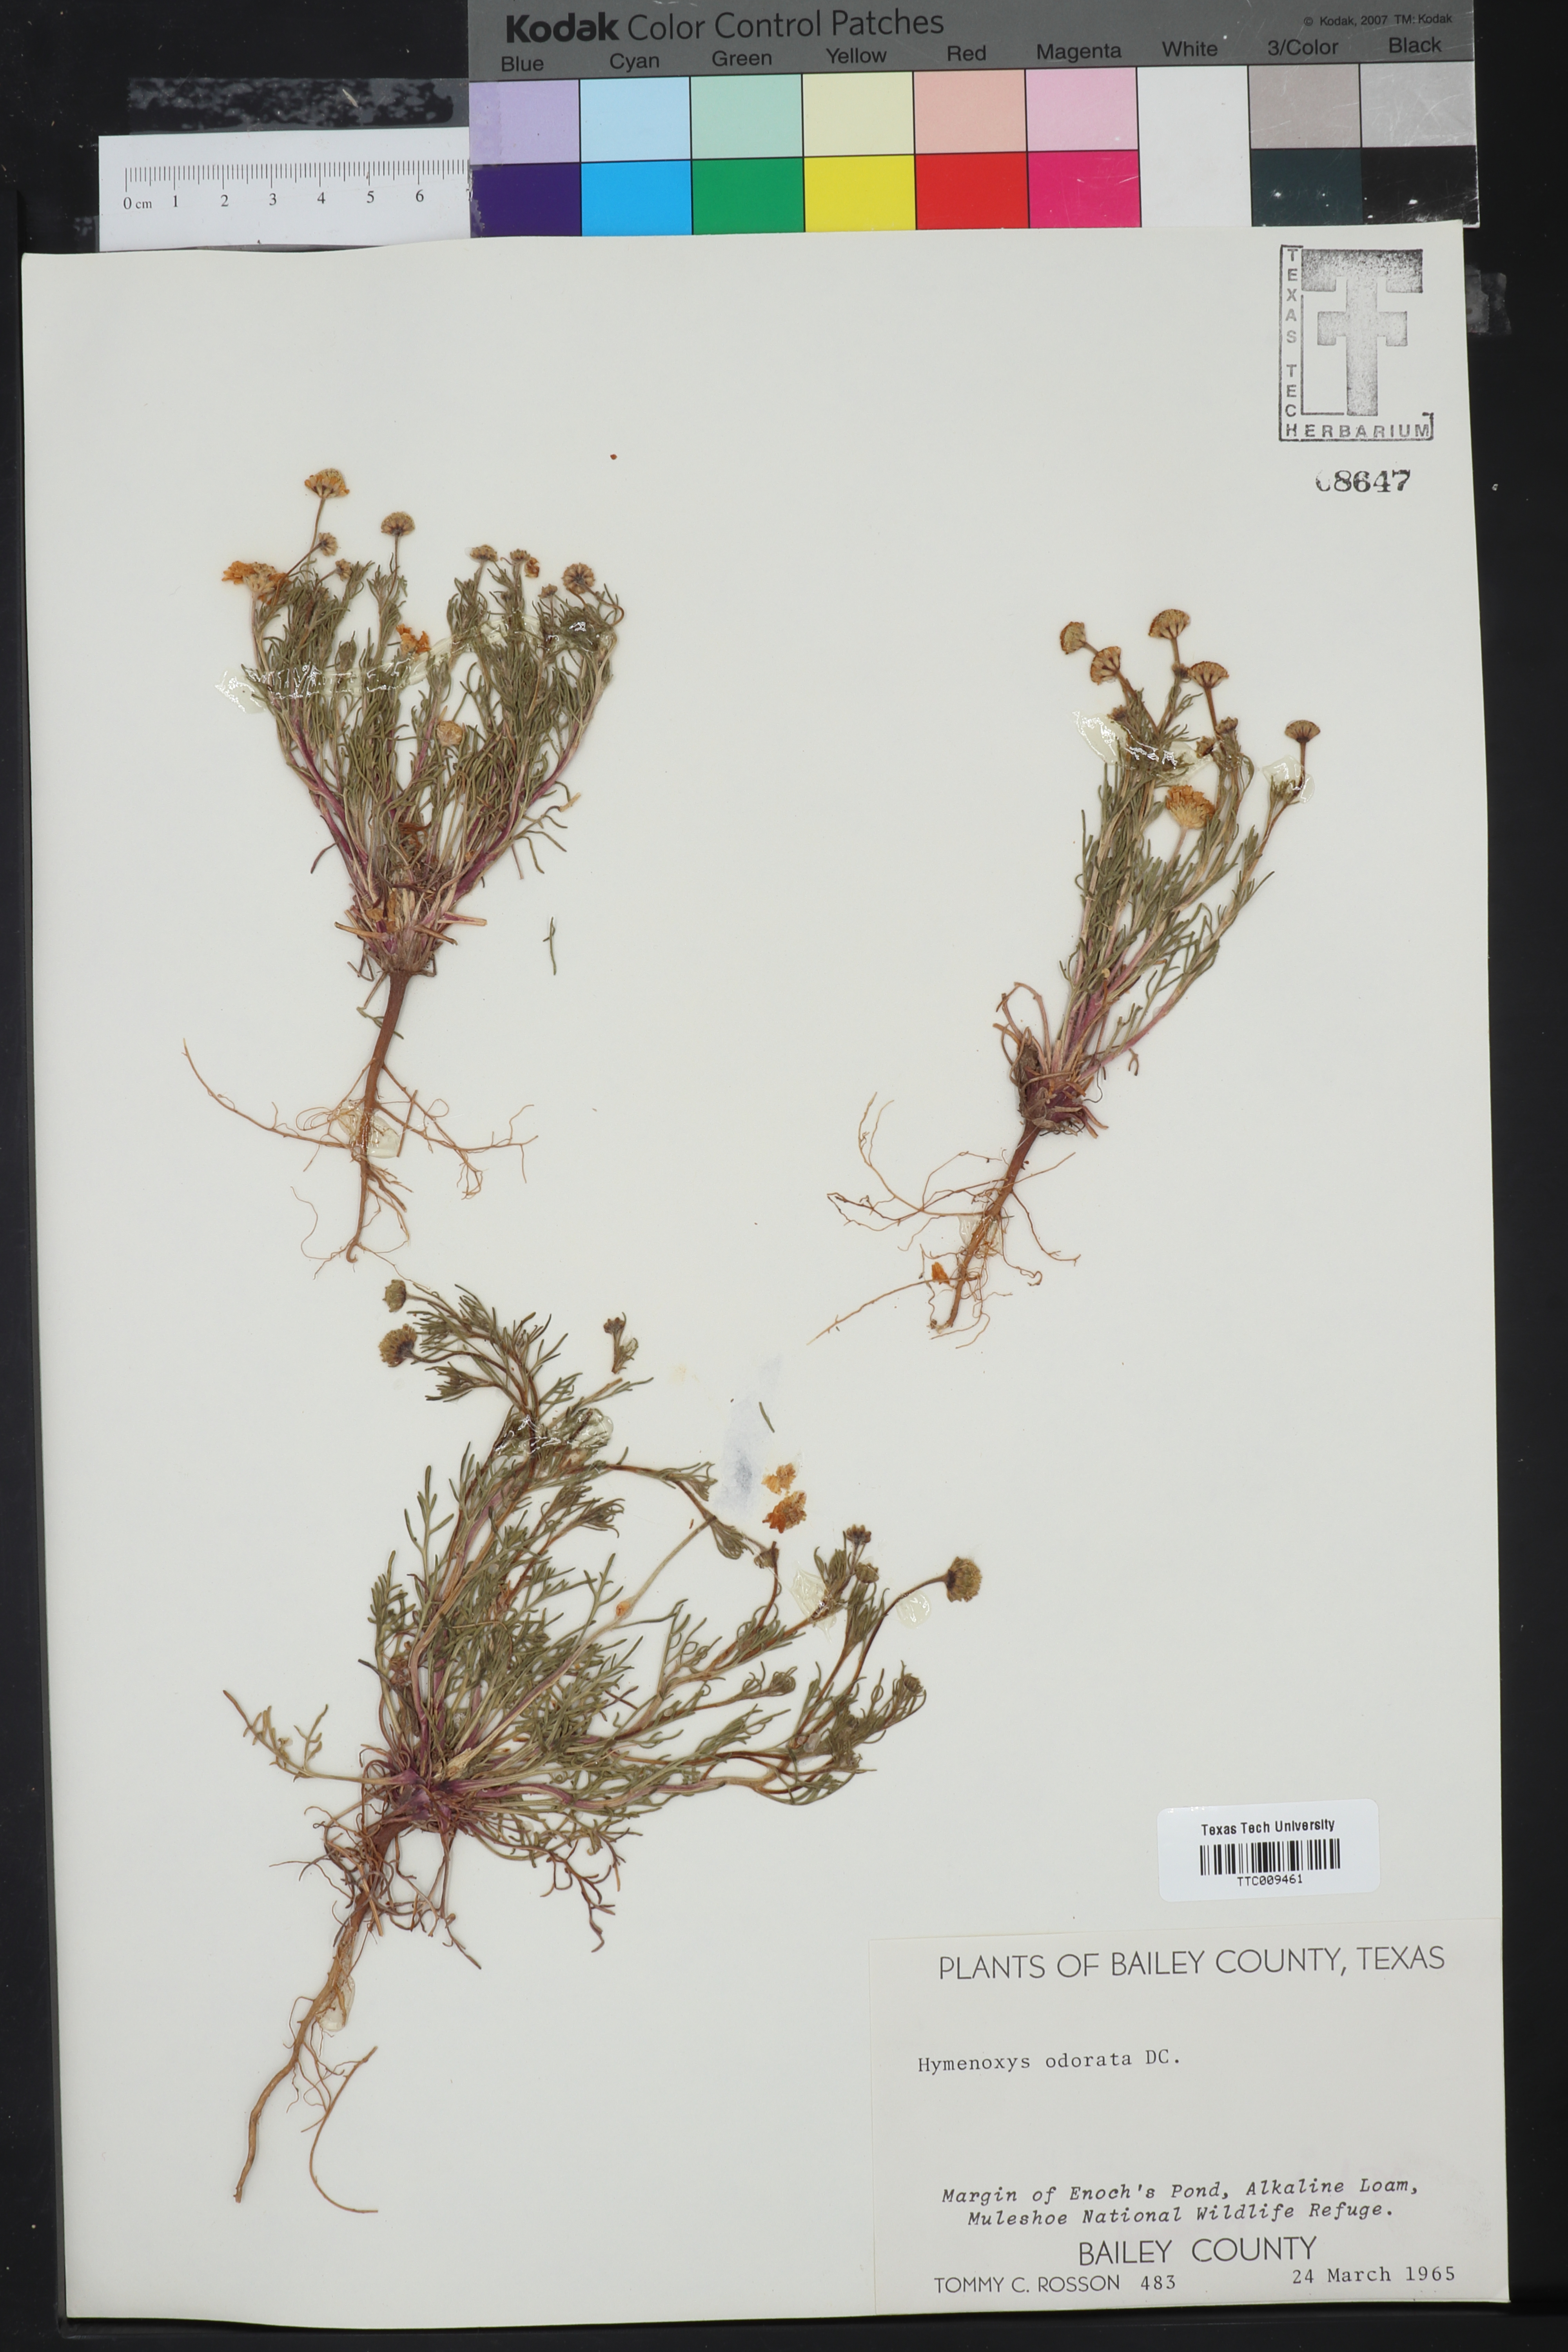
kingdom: Plantae
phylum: Tracheophyta
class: Magnoliopsida
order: Asterales
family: Asteraceae
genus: Hymenoxys
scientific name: Hymenoxys odorata
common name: Bitter rubberweed
